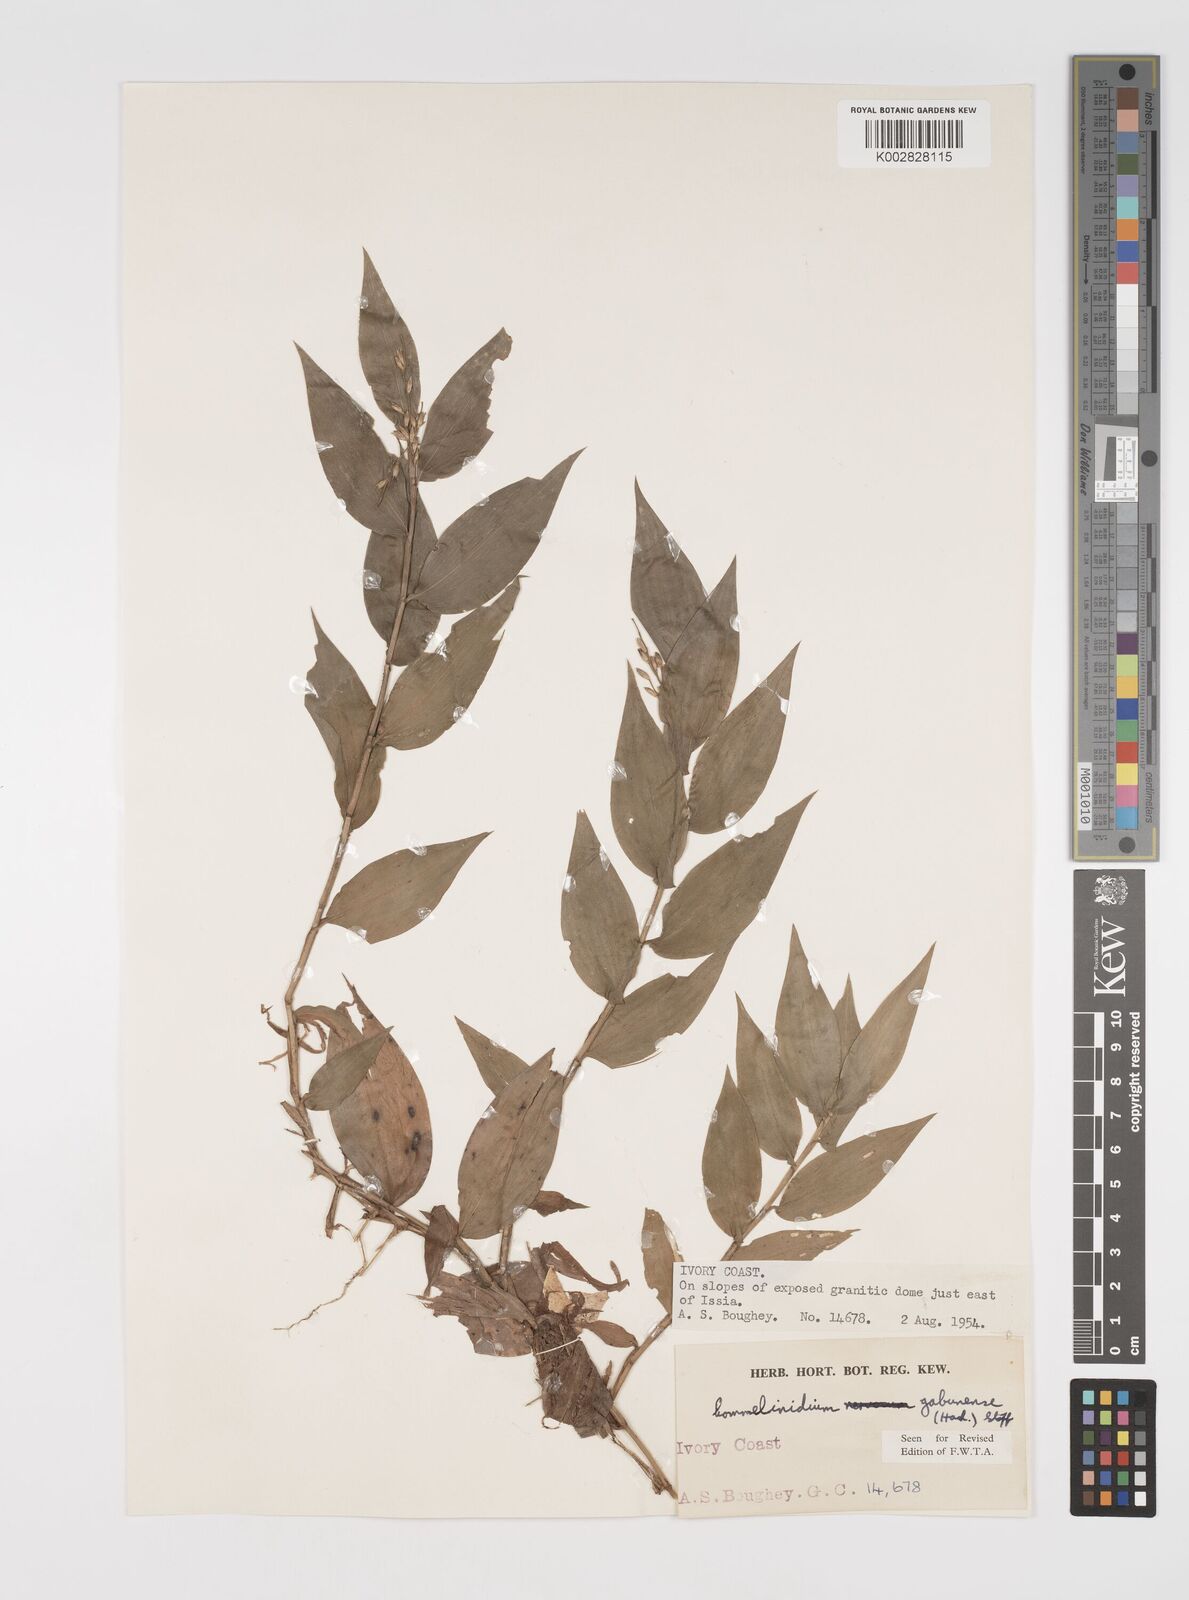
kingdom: Plantae
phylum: Tracheophyta
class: Liliopsida
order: Poales
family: Poaceae
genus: Acroceras
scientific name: Acroceras gabunense
